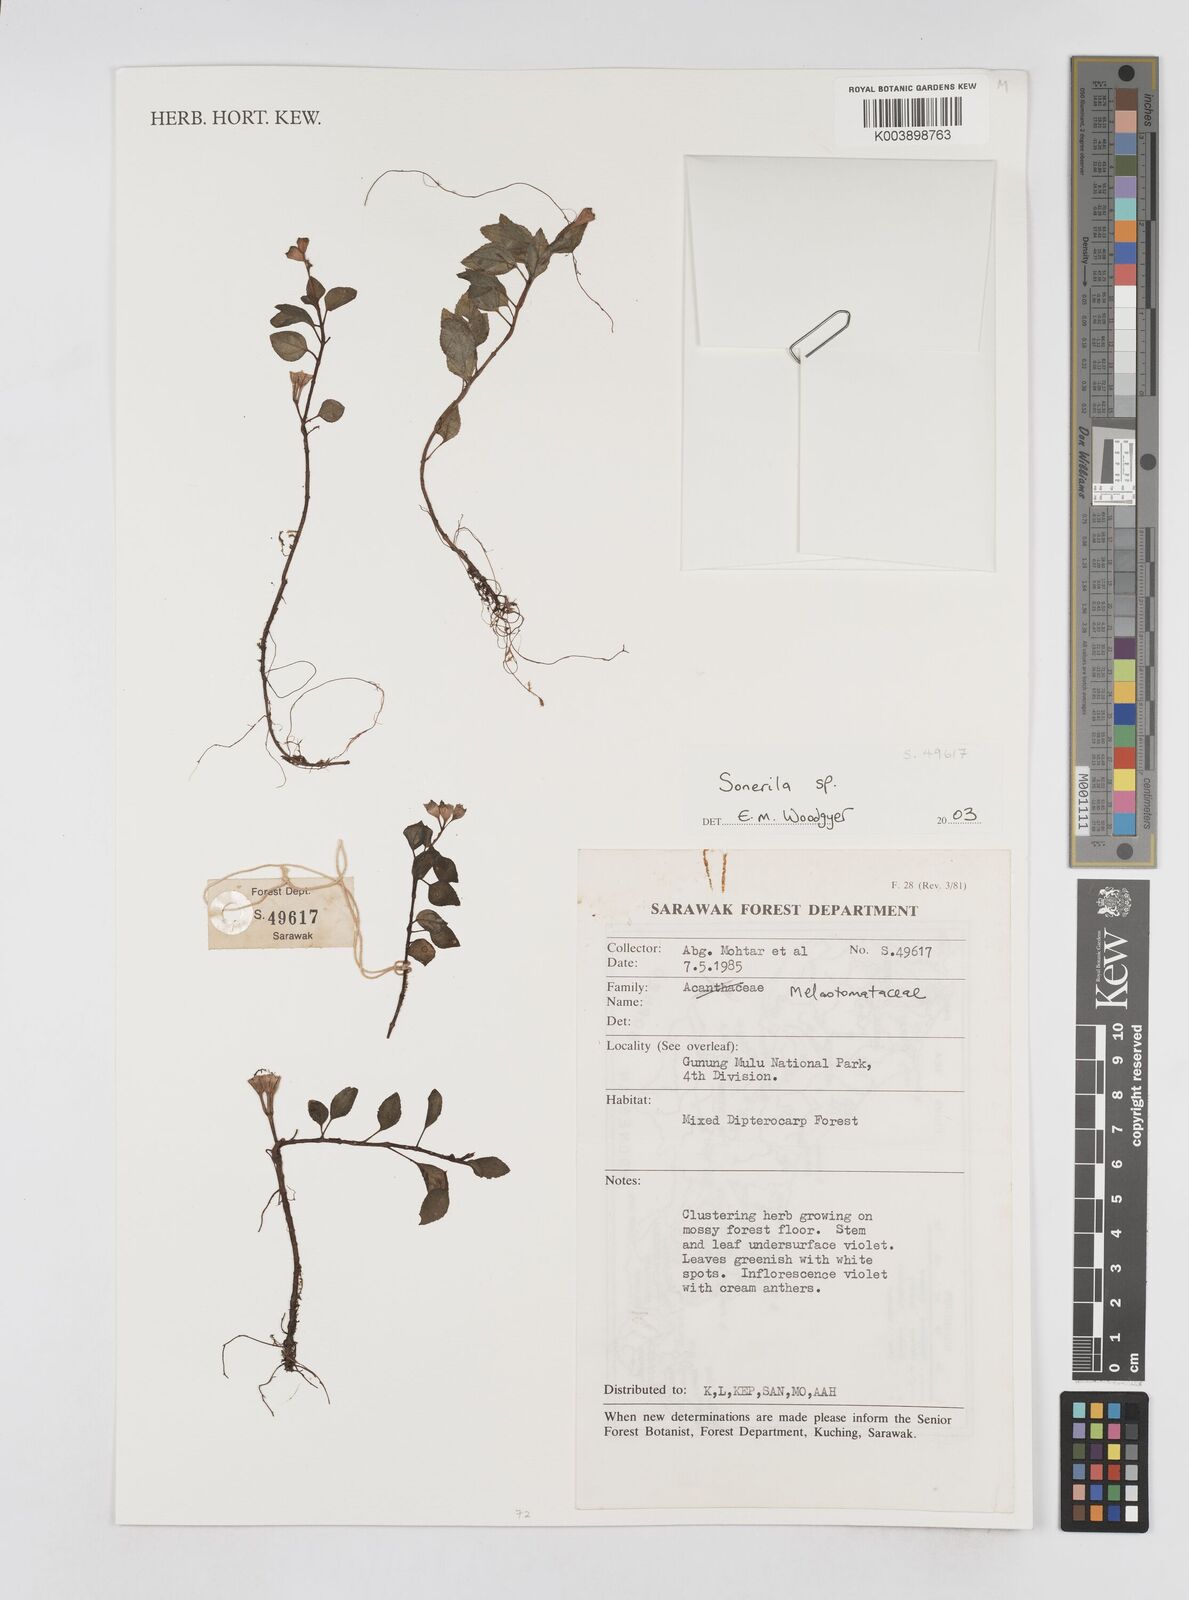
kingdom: Plantae
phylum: Tracheophyta
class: Magnoliopsida
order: Myrtales
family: Melastomataceae
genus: Sonerila
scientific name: Sonerila
